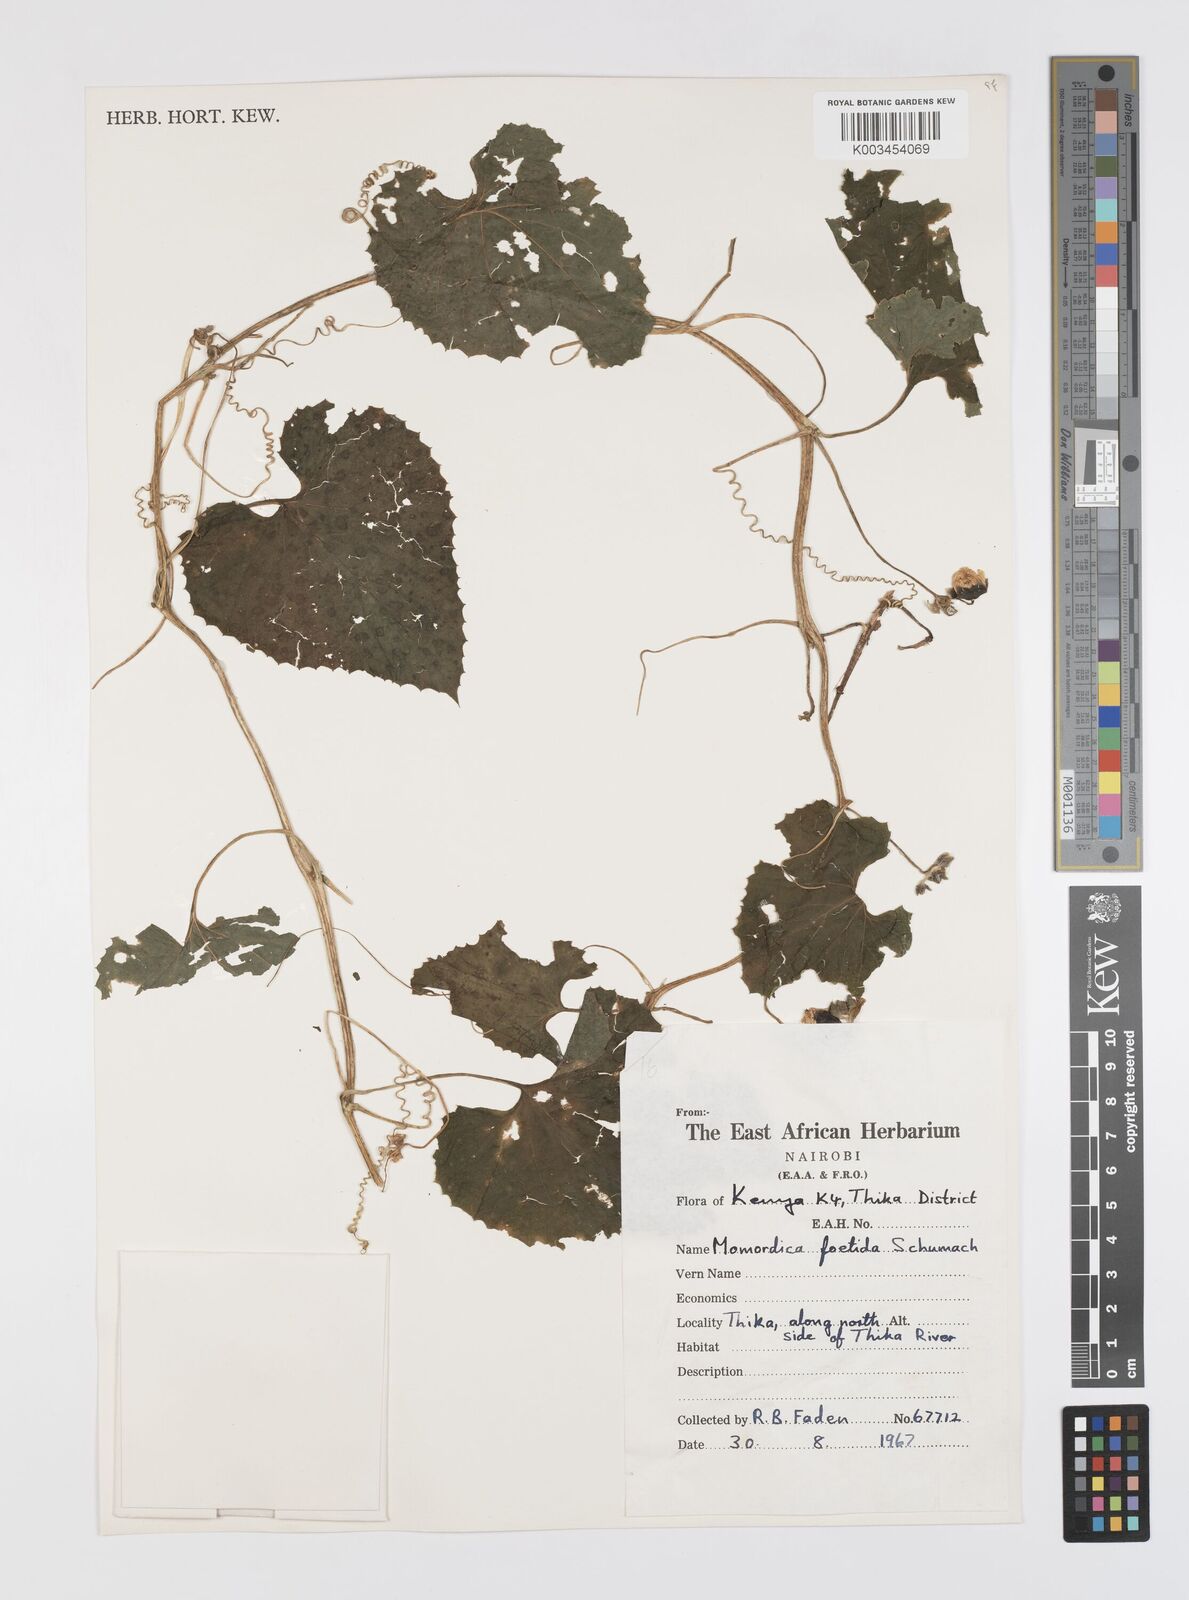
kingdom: Plantae
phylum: Tracheophyta
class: Magnoliopsida
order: Cucurbitales
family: Cucurbitaceae
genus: Momordica
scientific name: Momordica foetida
